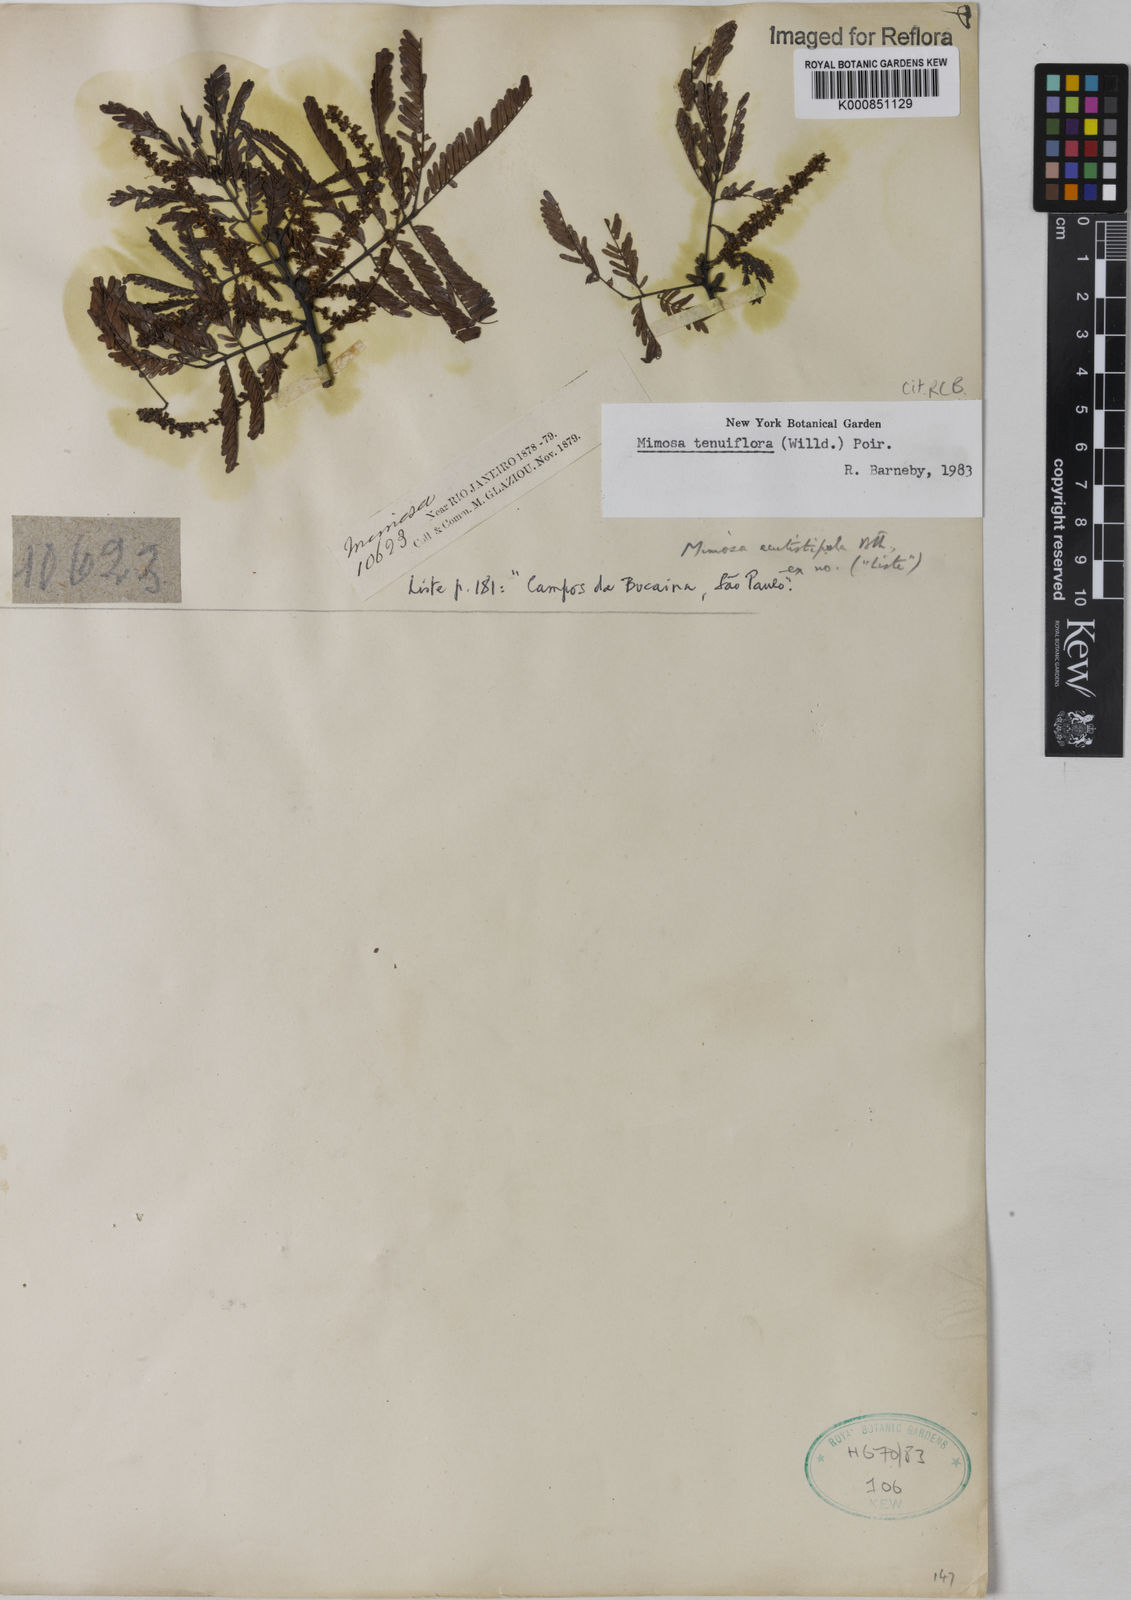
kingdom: Plantae
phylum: Tracheophyta
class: Magnoliopsida
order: Fabales
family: Fabaceae
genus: Mimosa
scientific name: Mimosa tenuiflora
